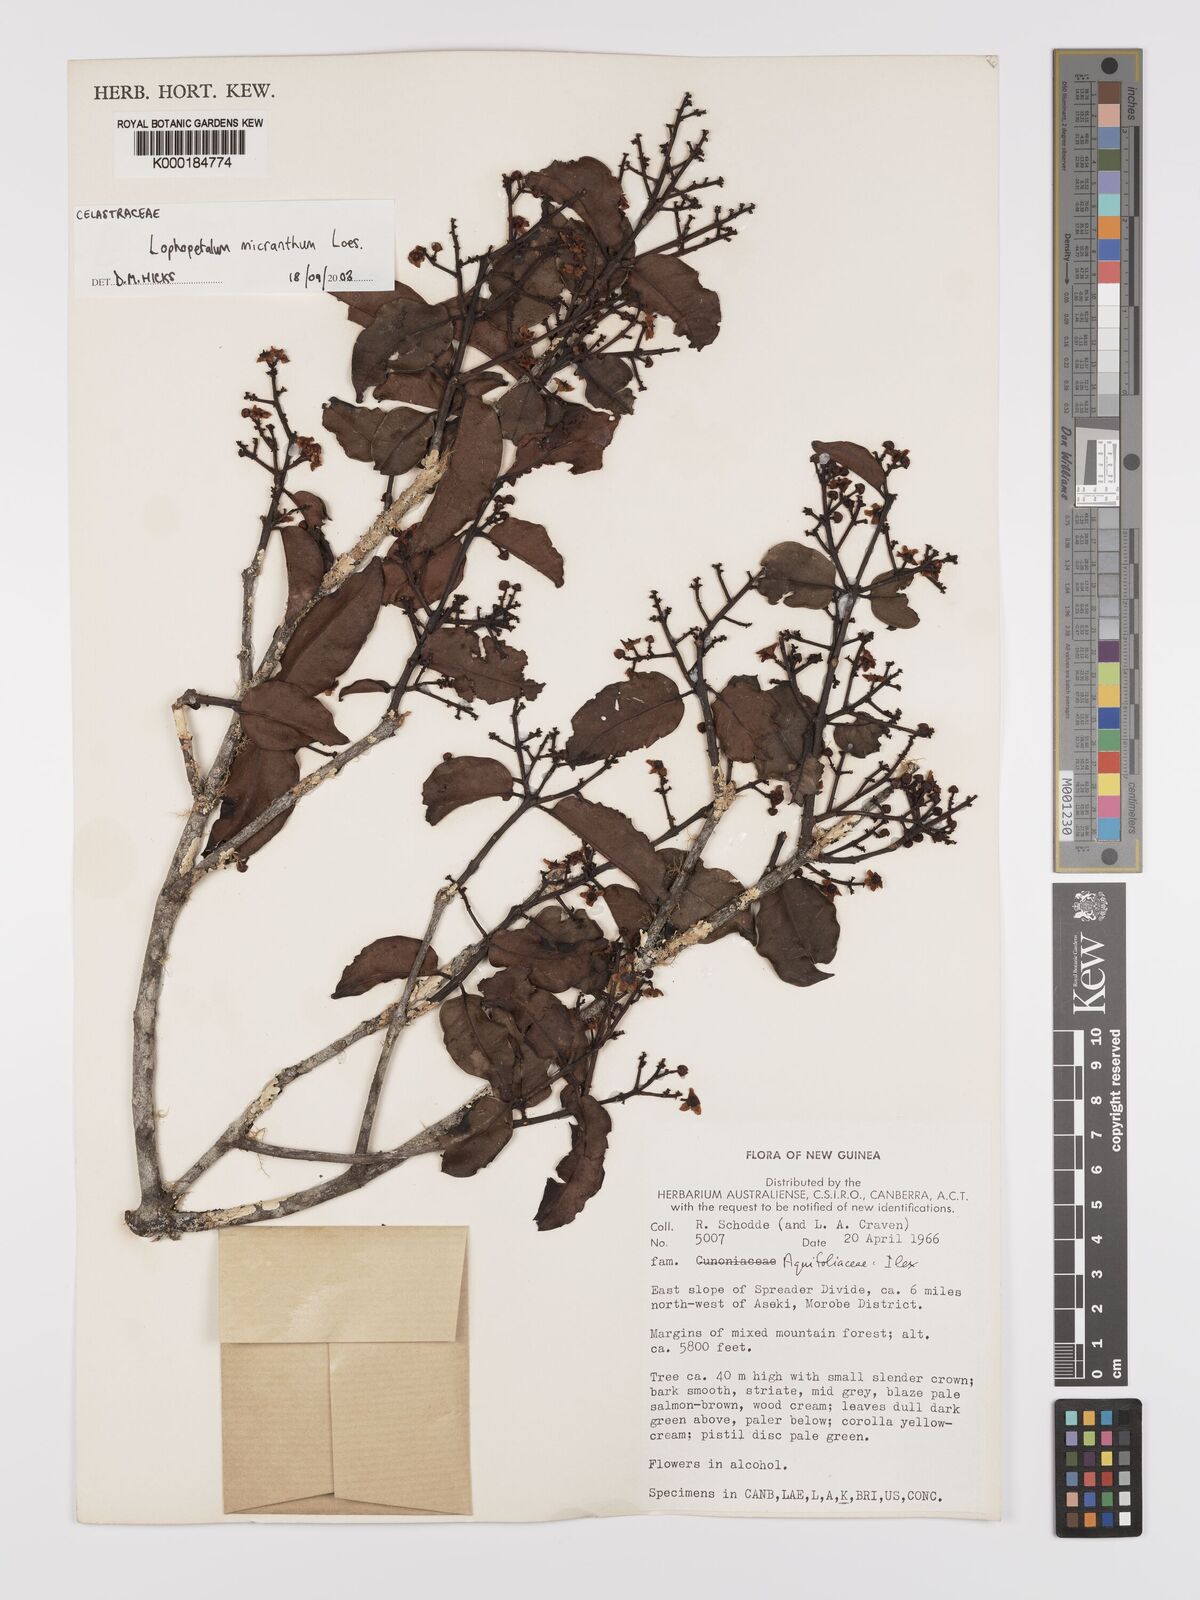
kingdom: Plantae
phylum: Tracheophyta
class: Magnoliopsida
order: Celastrales
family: Celastraceae
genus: Lophopetalum
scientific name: Lophopetalum micranthum
